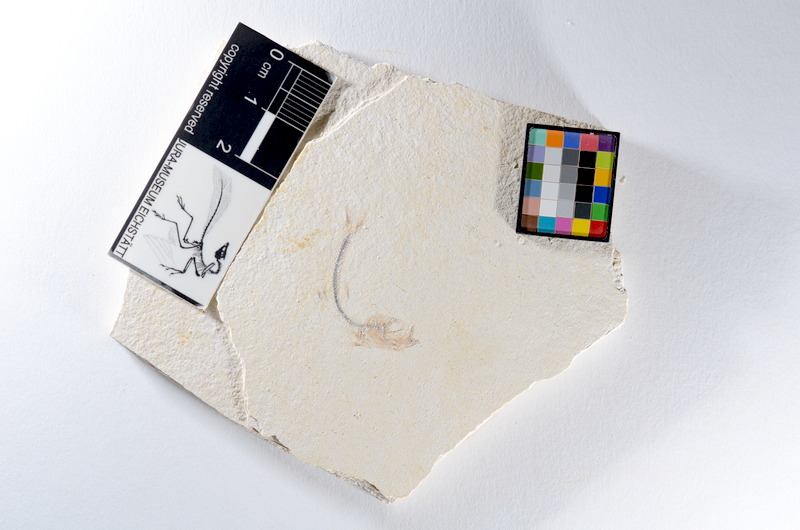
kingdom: Animalia
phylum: Chordata
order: Salmoniformes
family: Orthogonikleithridae
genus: Orthogonikleithrus
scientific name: Orthogonikleithrus hoelli
